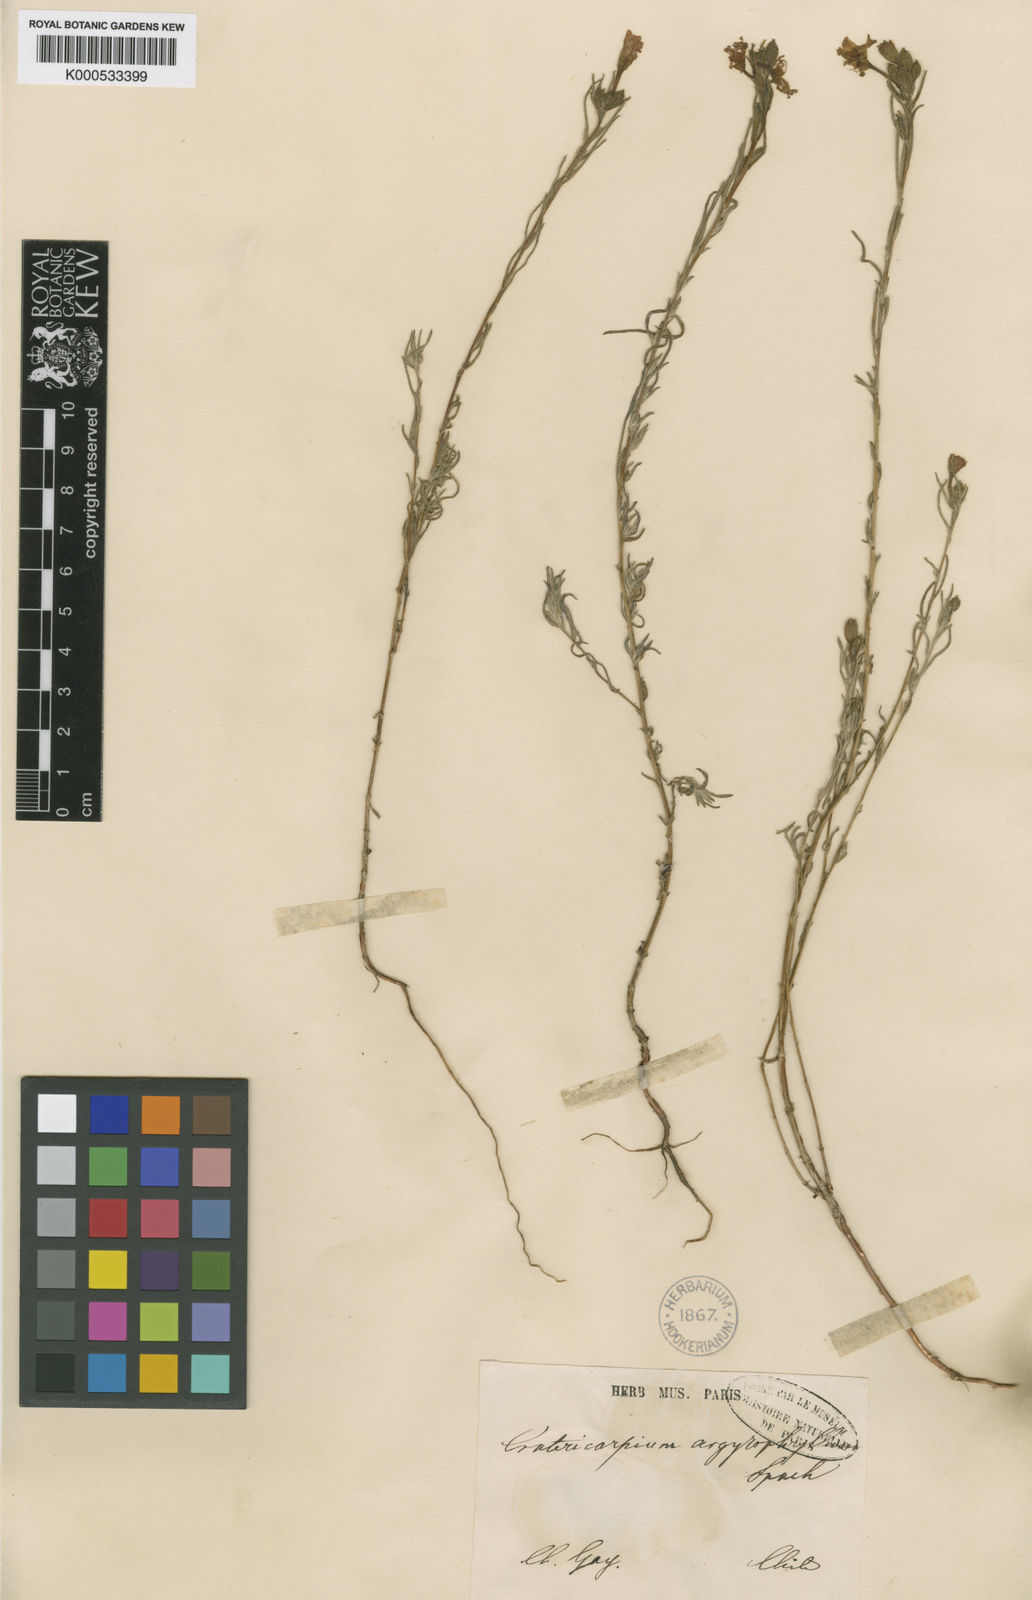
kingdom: Plantae
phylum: Tracheophyta
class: Magnoliopsida
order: Myrtales
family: Onagraceae
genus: Epilobium
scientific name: Epilobium subdentatum
